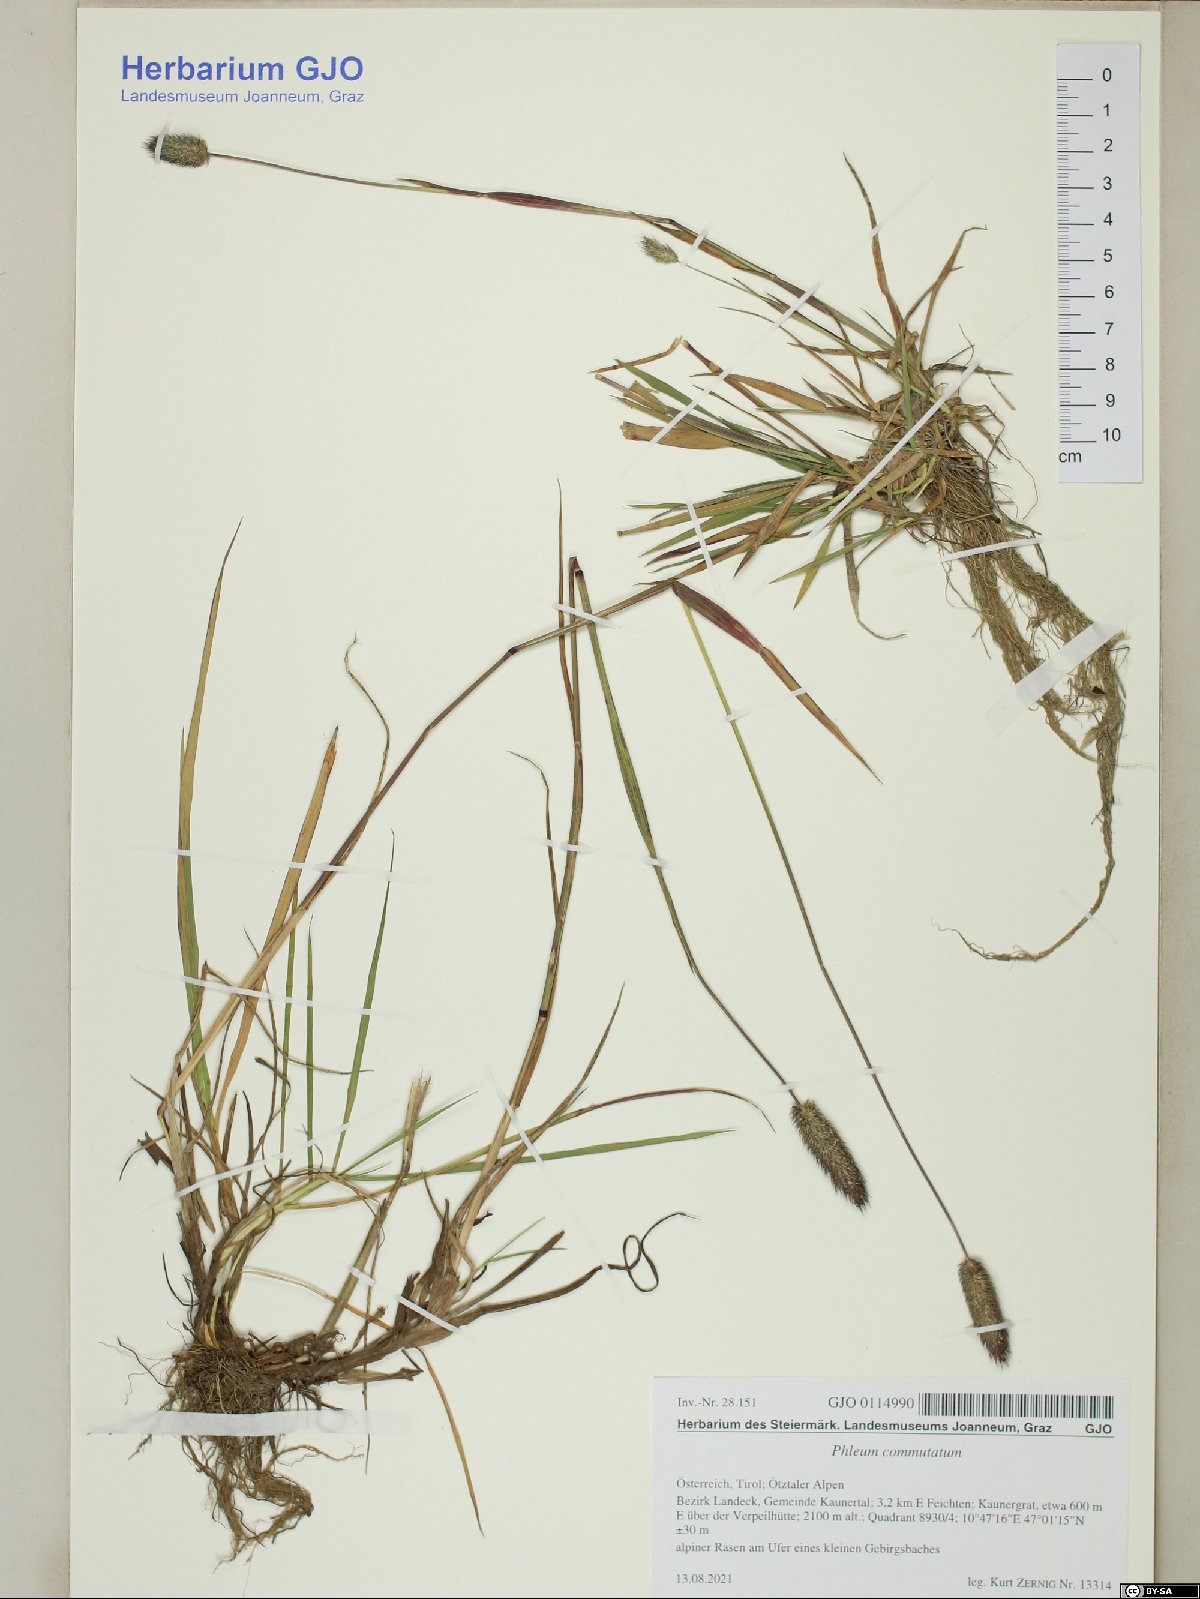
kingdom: Plantae
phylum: Tracheophyta
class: Liliopsida
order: Poales
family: Poaceae
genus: Phleum
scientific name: Phleum alpinum
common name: Alpine cat's-tail
